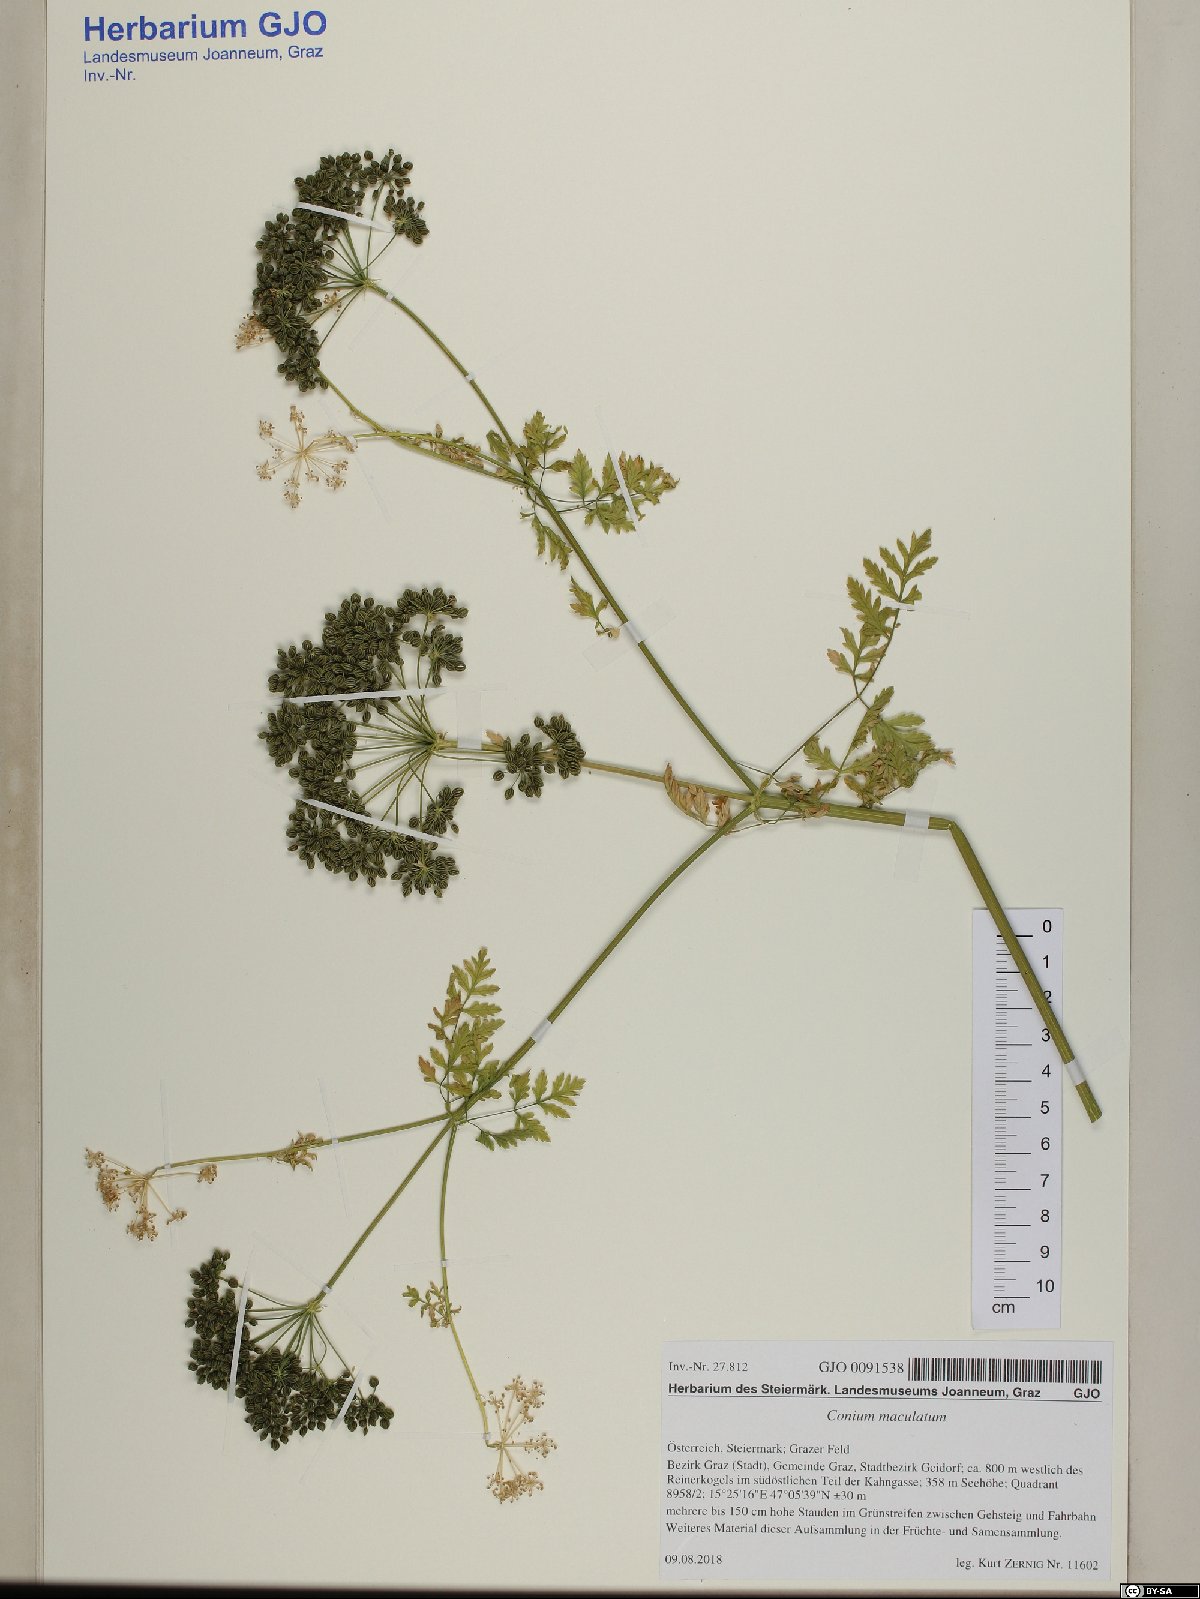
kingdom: Plantae
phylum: Tracheophyta
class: Magnoliopsida
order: Apiales
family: Apiaceae
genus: Conium
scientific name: Conium maculatum
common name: Hemlock
